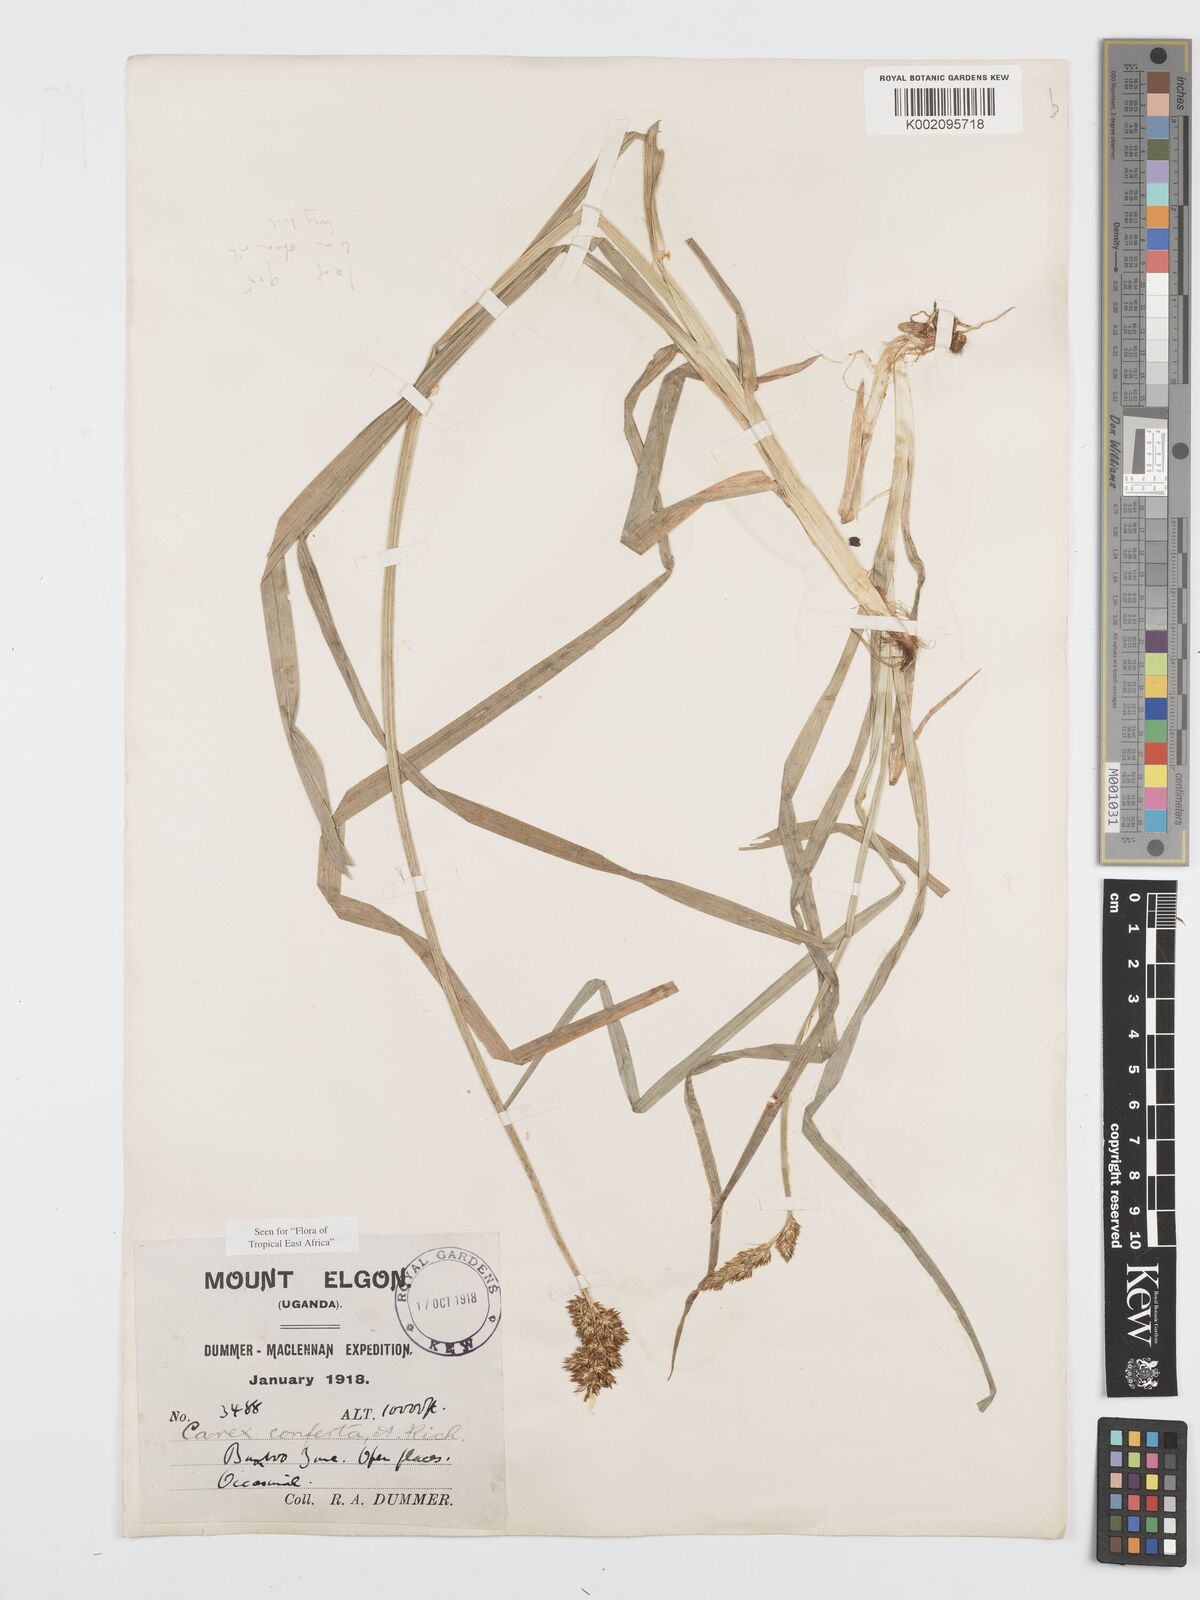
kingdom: Plantae
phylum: Tracheophyta
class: Liliopsida
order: Poales
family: Cyperaceae
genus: Carex
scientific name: Carex conferta
